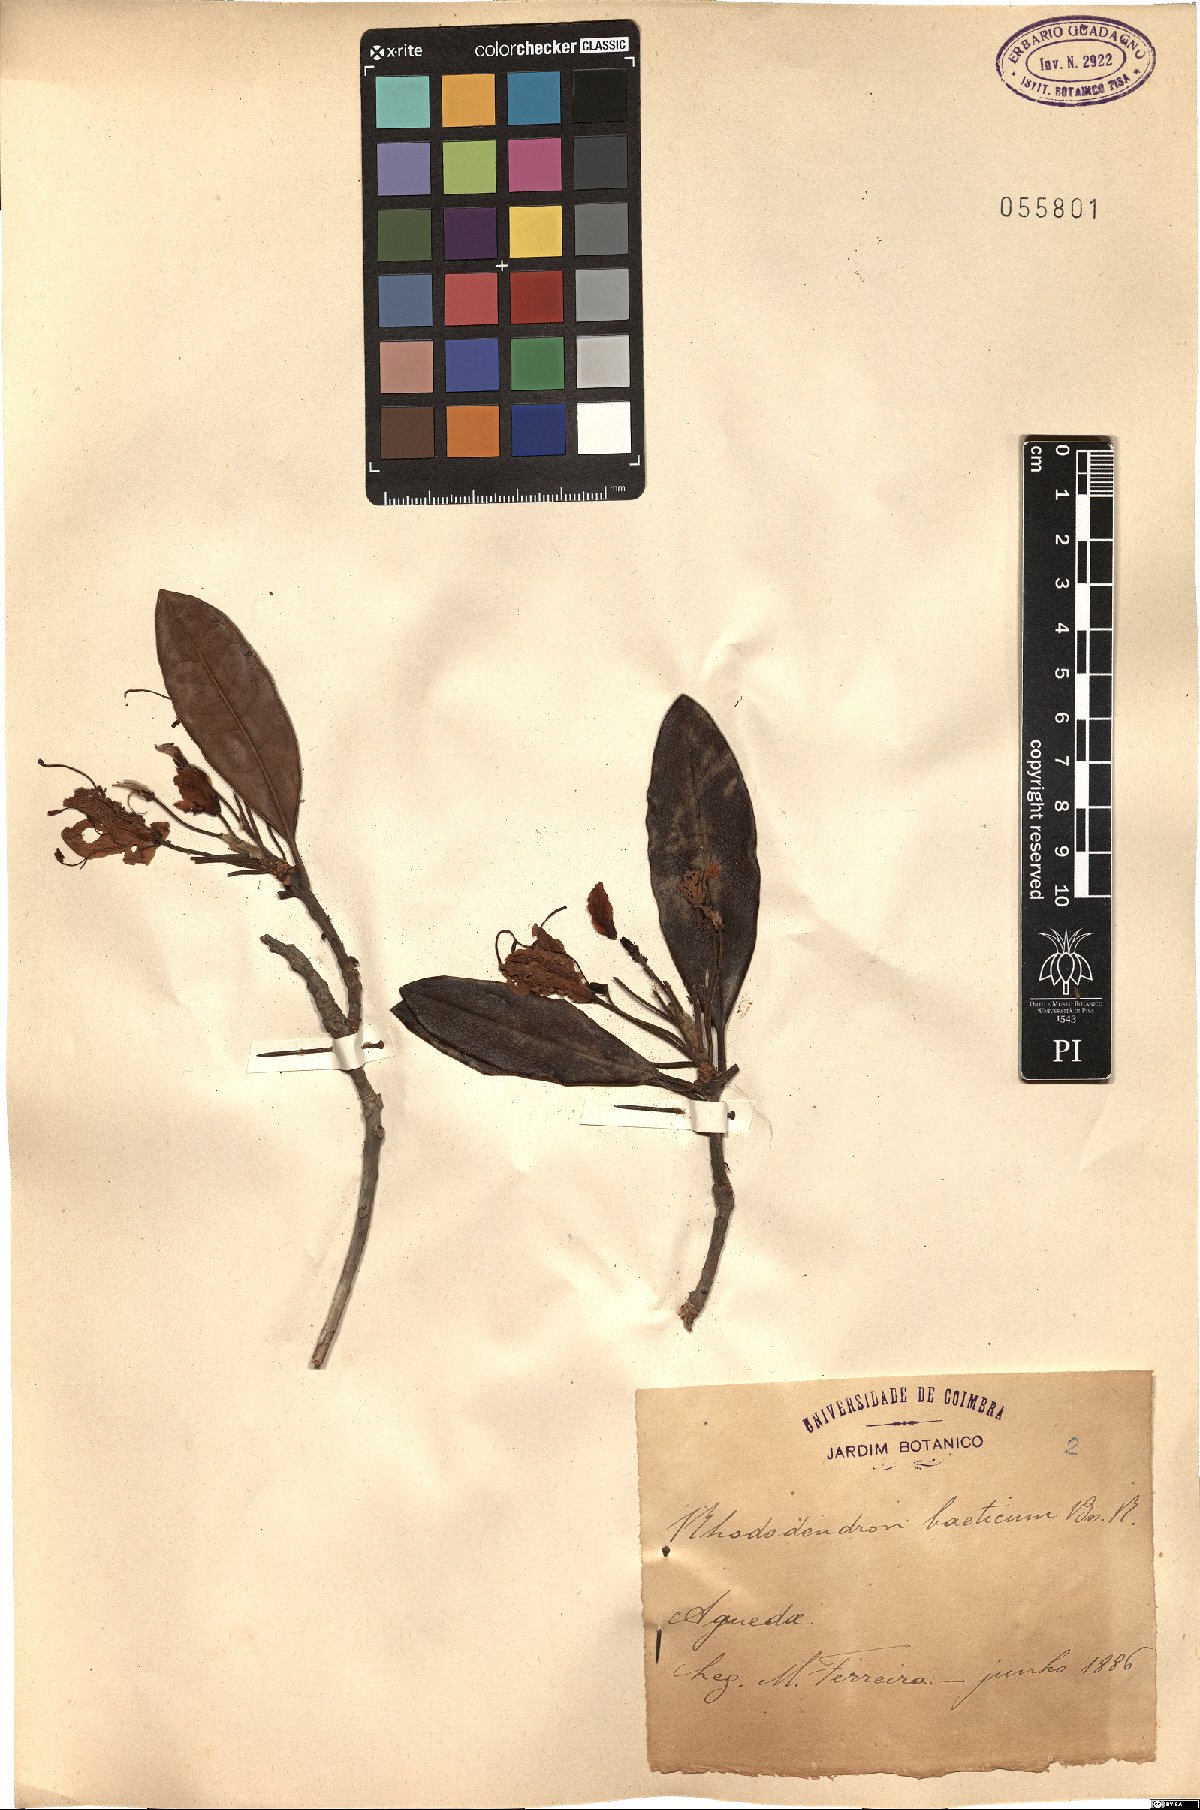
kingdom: Plantae
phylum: Tracheophyta
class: Magnoliopsida
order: Ericales
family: Ericaceae
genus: Rhododendron
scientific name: Rhododendron ponticum
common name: Rhododendron
